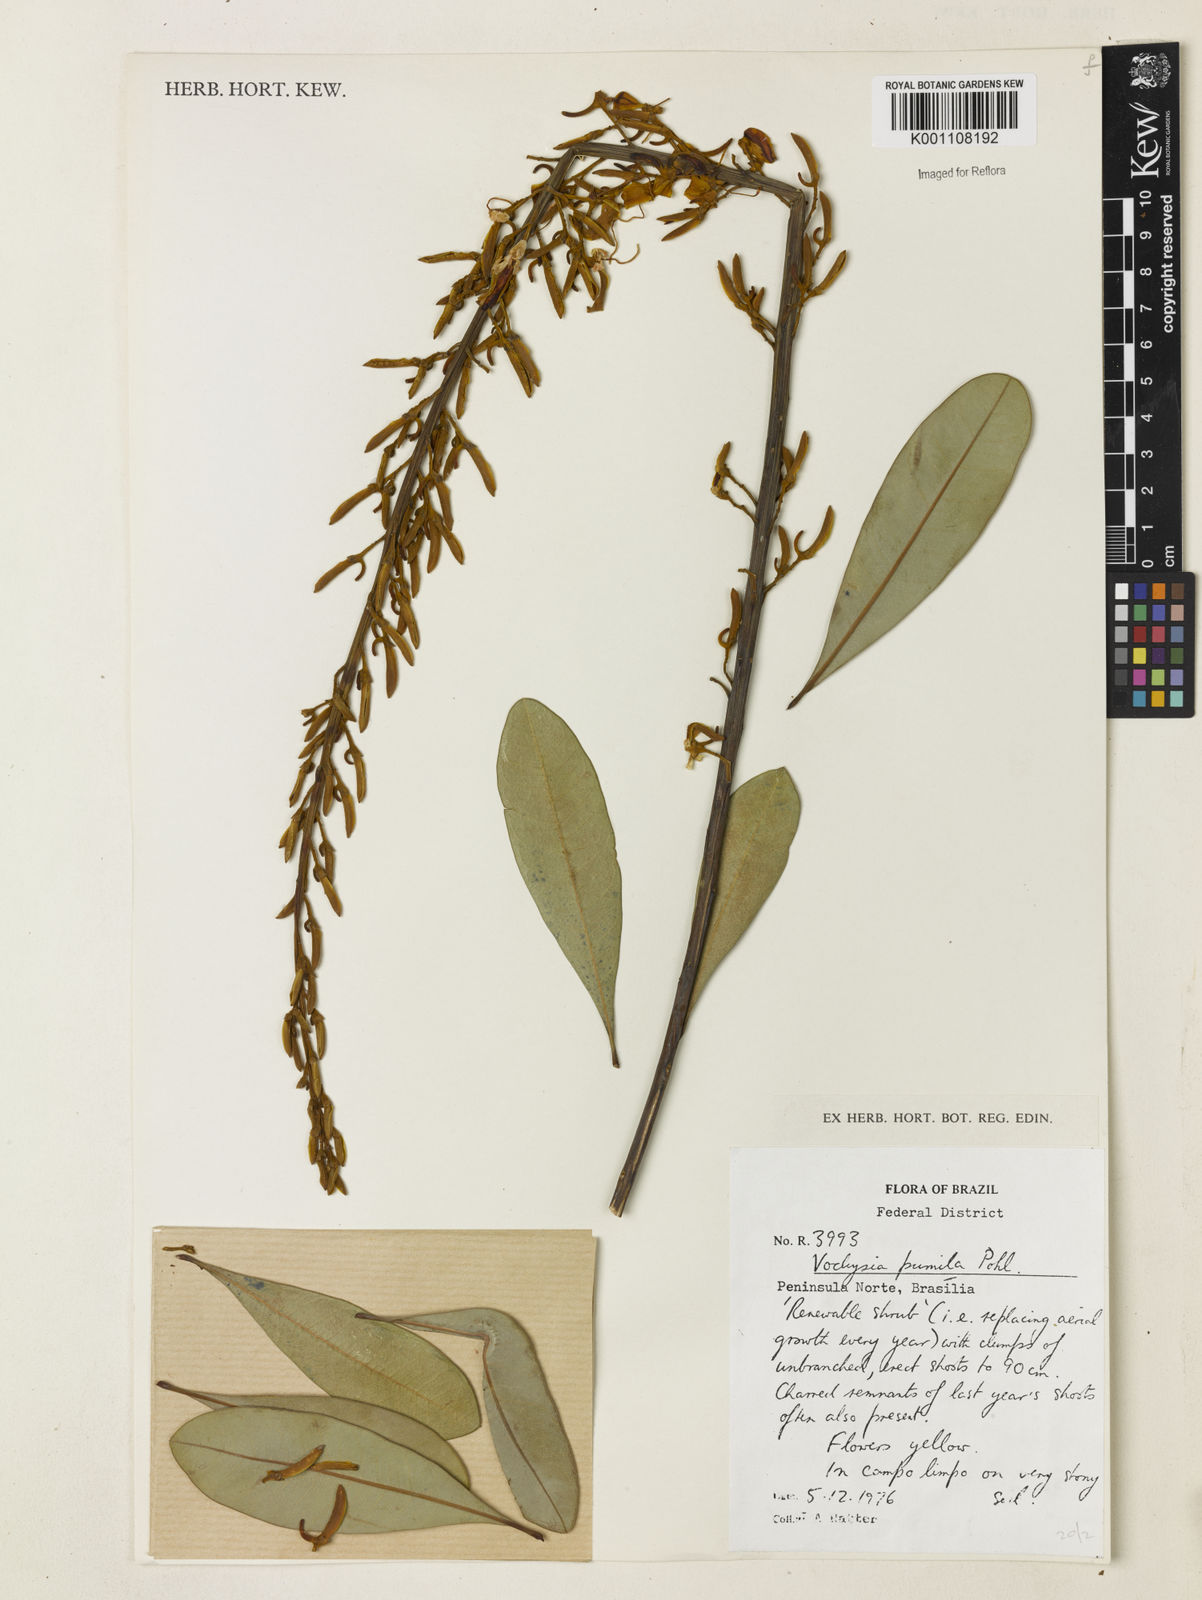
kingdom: Plantae
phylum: Tracheophyta
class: Magnoliopsida
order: Myrtales
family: Vochysiaceae
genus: Vochysia
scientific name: Vochysia pumila
